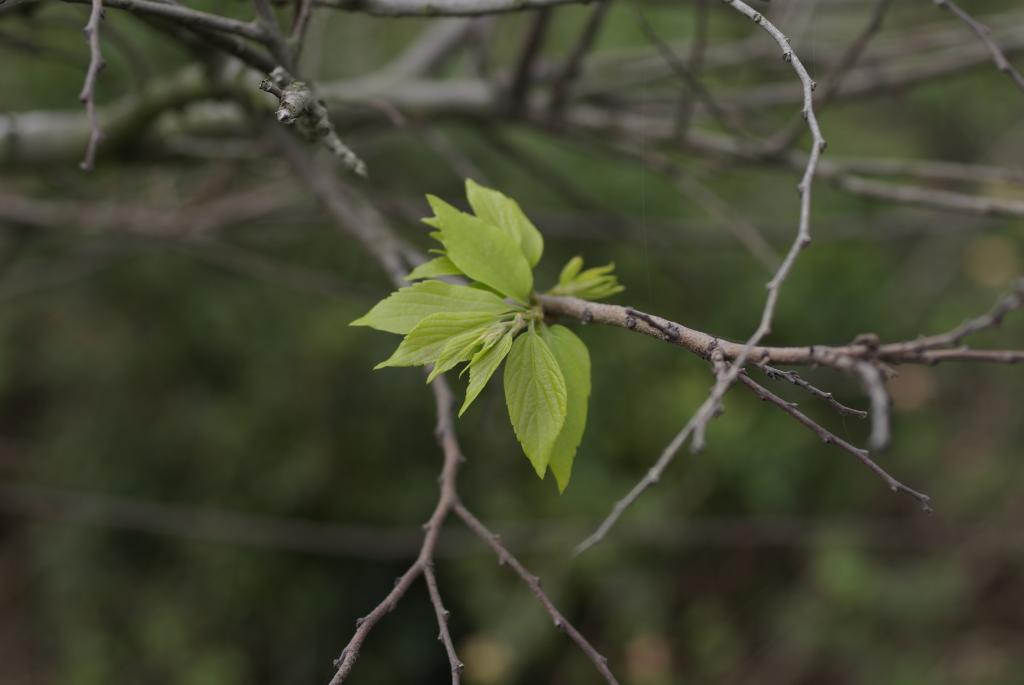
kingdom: Plantae
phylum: Tracheophyta
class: Magnoliopsida
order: Rosales
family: Cannabaceae
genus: Celtis
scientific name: Celtis sinensis
